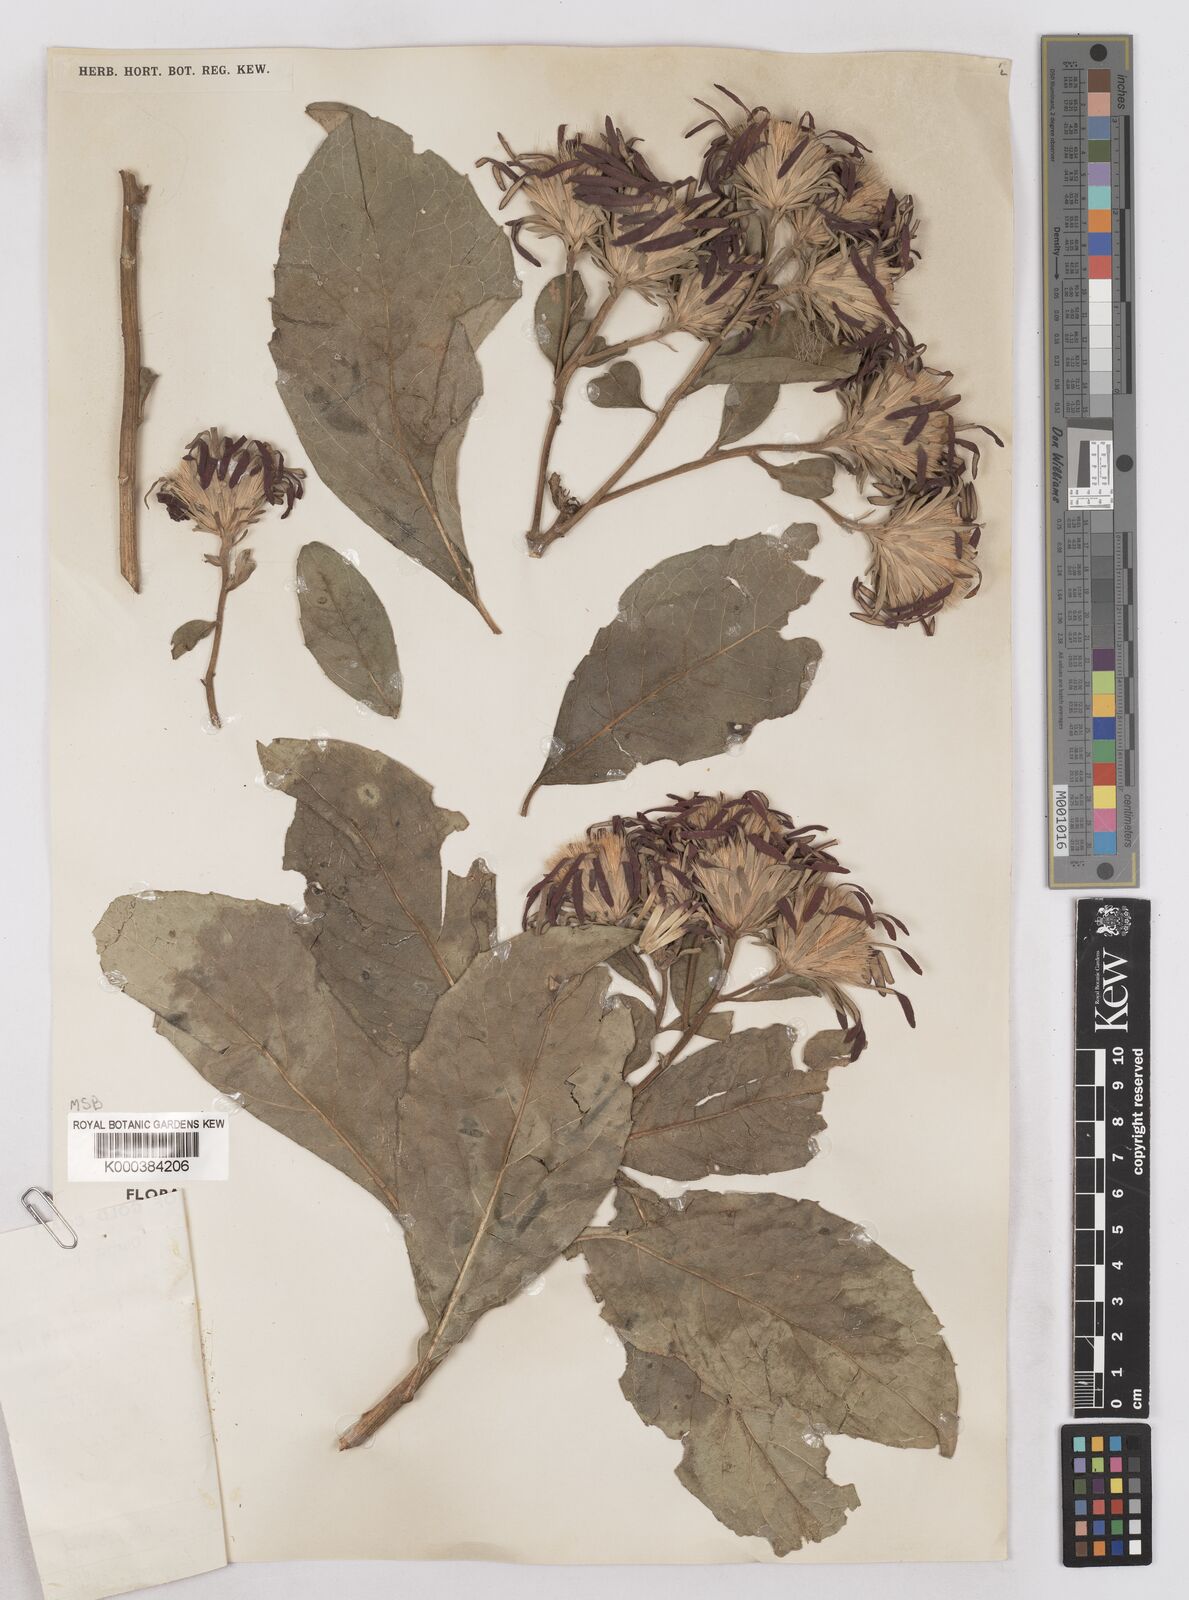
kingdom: Plantae
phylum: Tracheophyta
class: Magnoliopsida
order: Asterales
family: Asteraceae
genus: Linzia
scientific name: Linzia nigritiana
